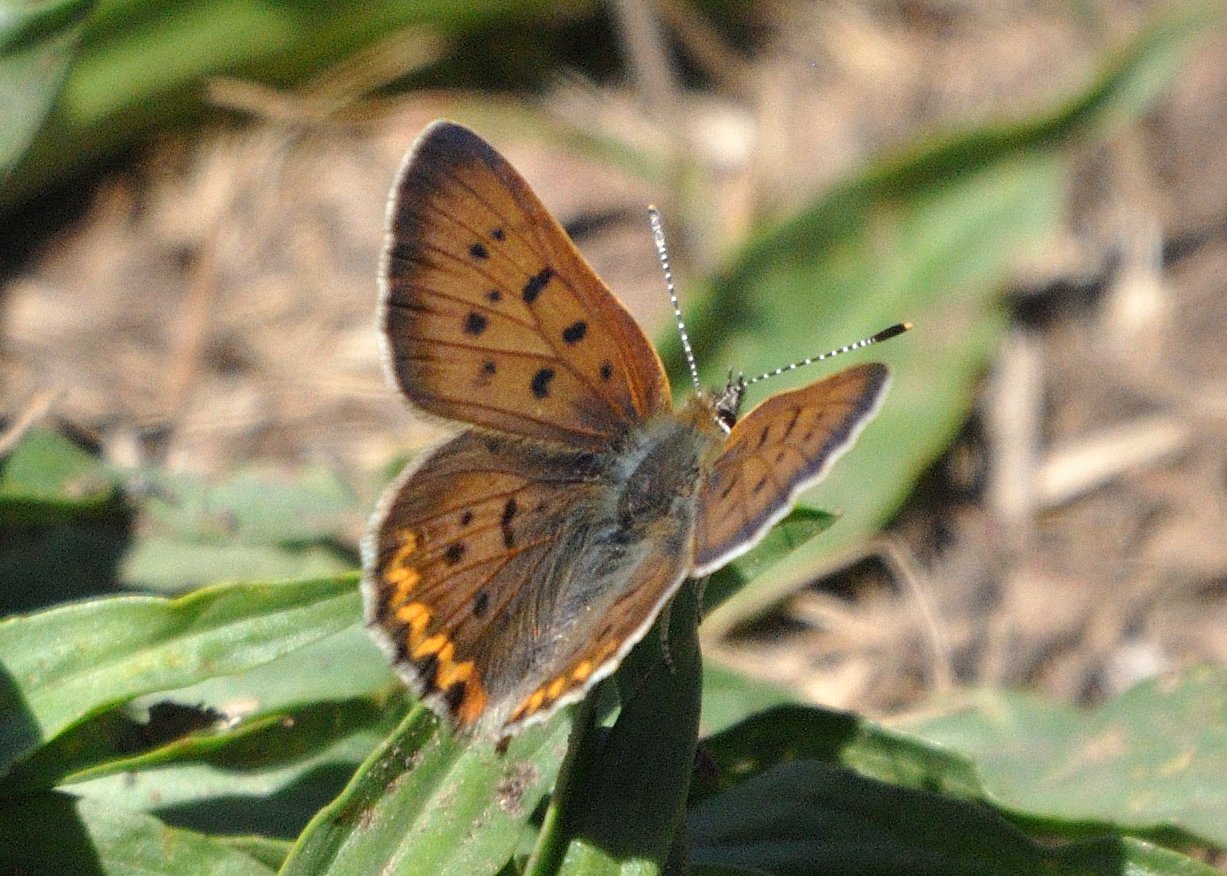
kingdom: Animalia
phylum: Arthropoda
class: Insecta
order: Lepidoptera
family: Sesiidae
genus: Sesia
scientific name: Sesia Lycaena helloides
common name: Purplish Copper
